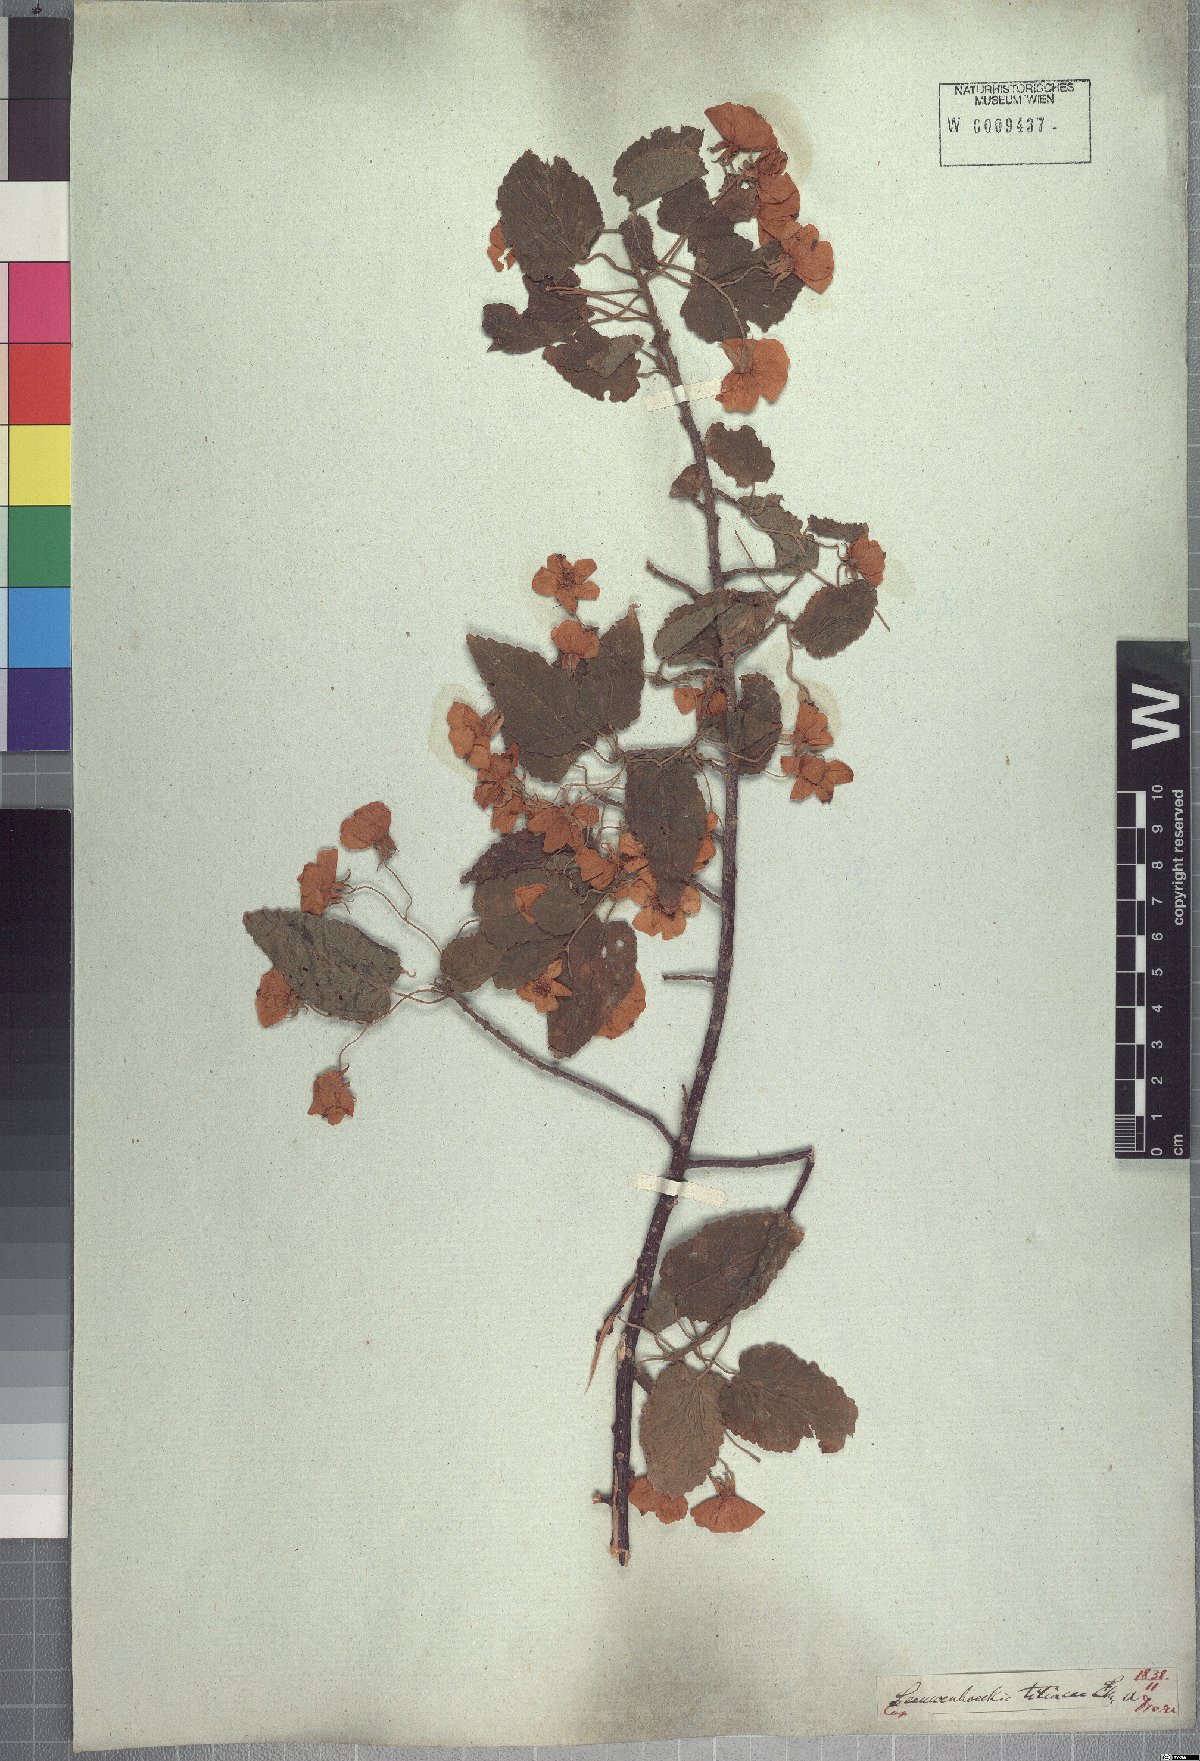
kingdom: Plantae
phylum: Tracheophyta
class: Magnoliopsida
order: Malvales
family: Malvaceae
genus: Dombeya
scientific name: Dombeya tiliacea
